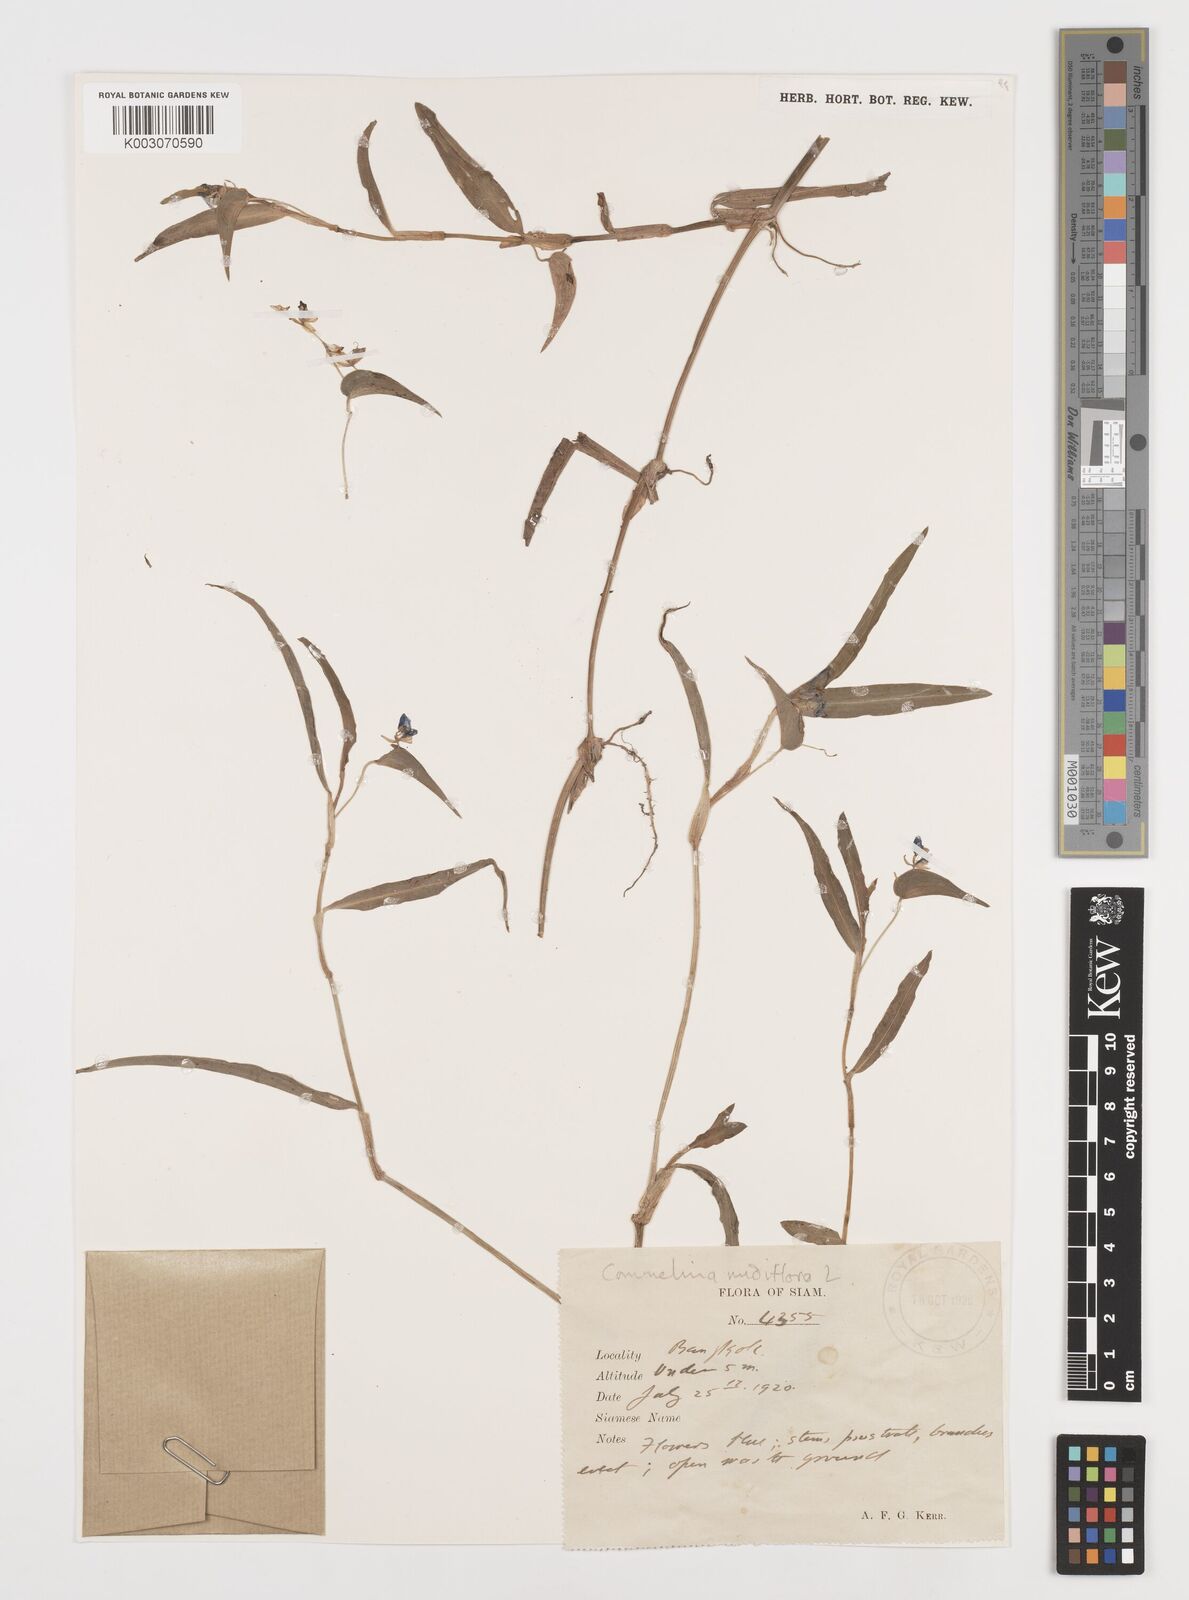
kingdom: Plantae
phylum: Tracheophyta
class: Liliopsida
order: Commelinales
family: Commelinaceae
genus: Commelina
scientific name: Commelina clavata
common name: Willow leaved dayflower
